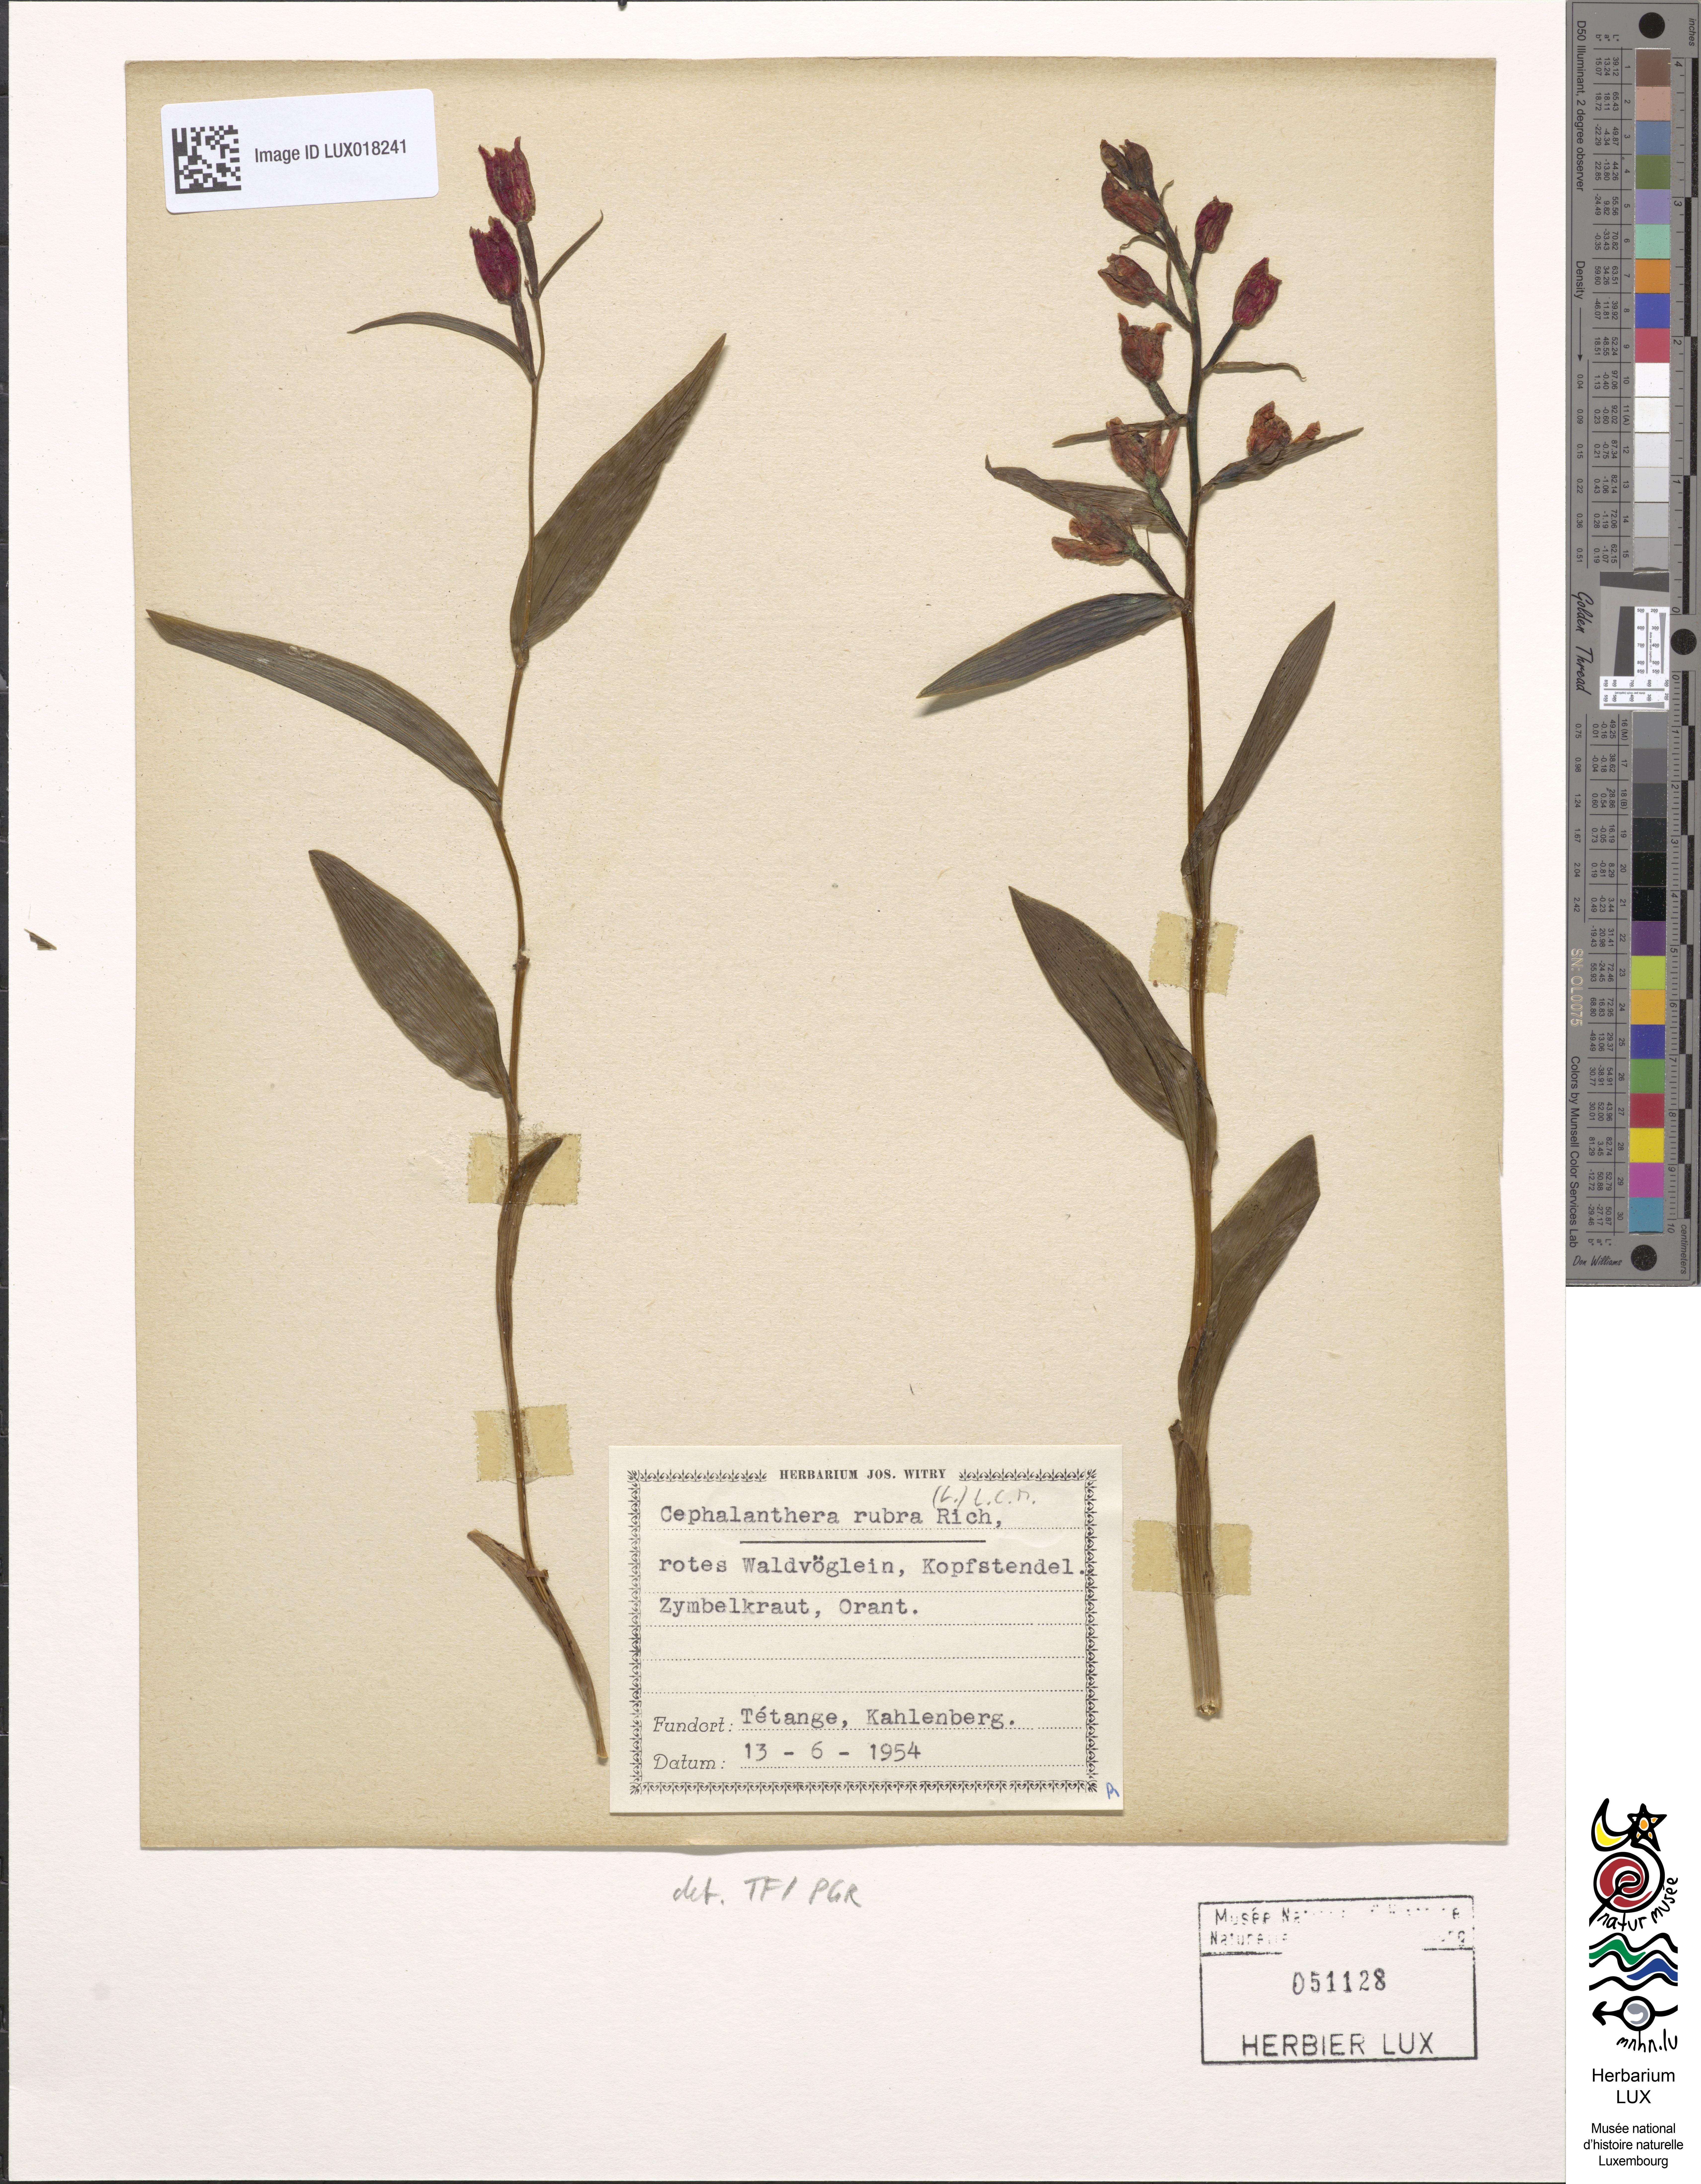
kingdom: Plantae
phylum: Tracheophyta
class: Liliopsida
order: Asparagales
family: Orchidaceae
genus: Cephalanthera
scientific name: Cephalanthera rubra
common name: Red helleborine
